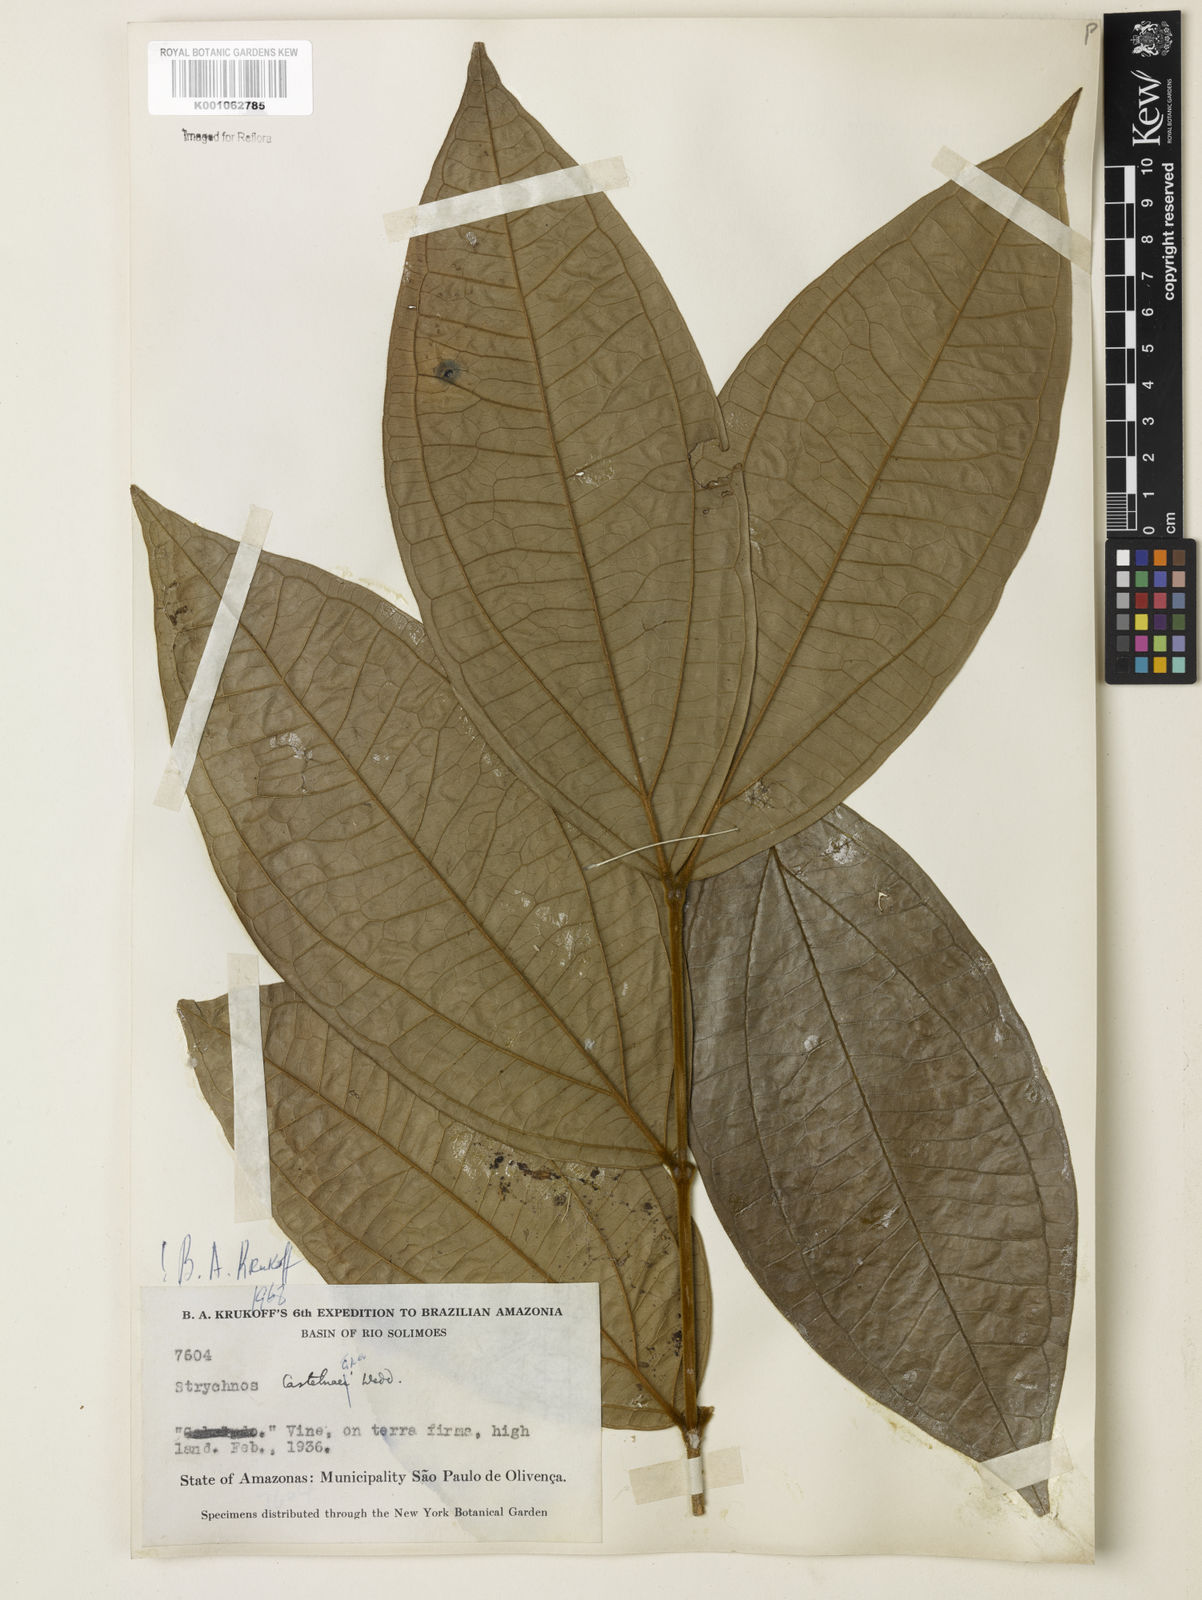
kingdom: Plantae
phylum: Tracheophyta
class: Magnoliopsida
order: Gentianales
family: Loganiaceae
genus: Strychnos
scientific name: Strychnos
